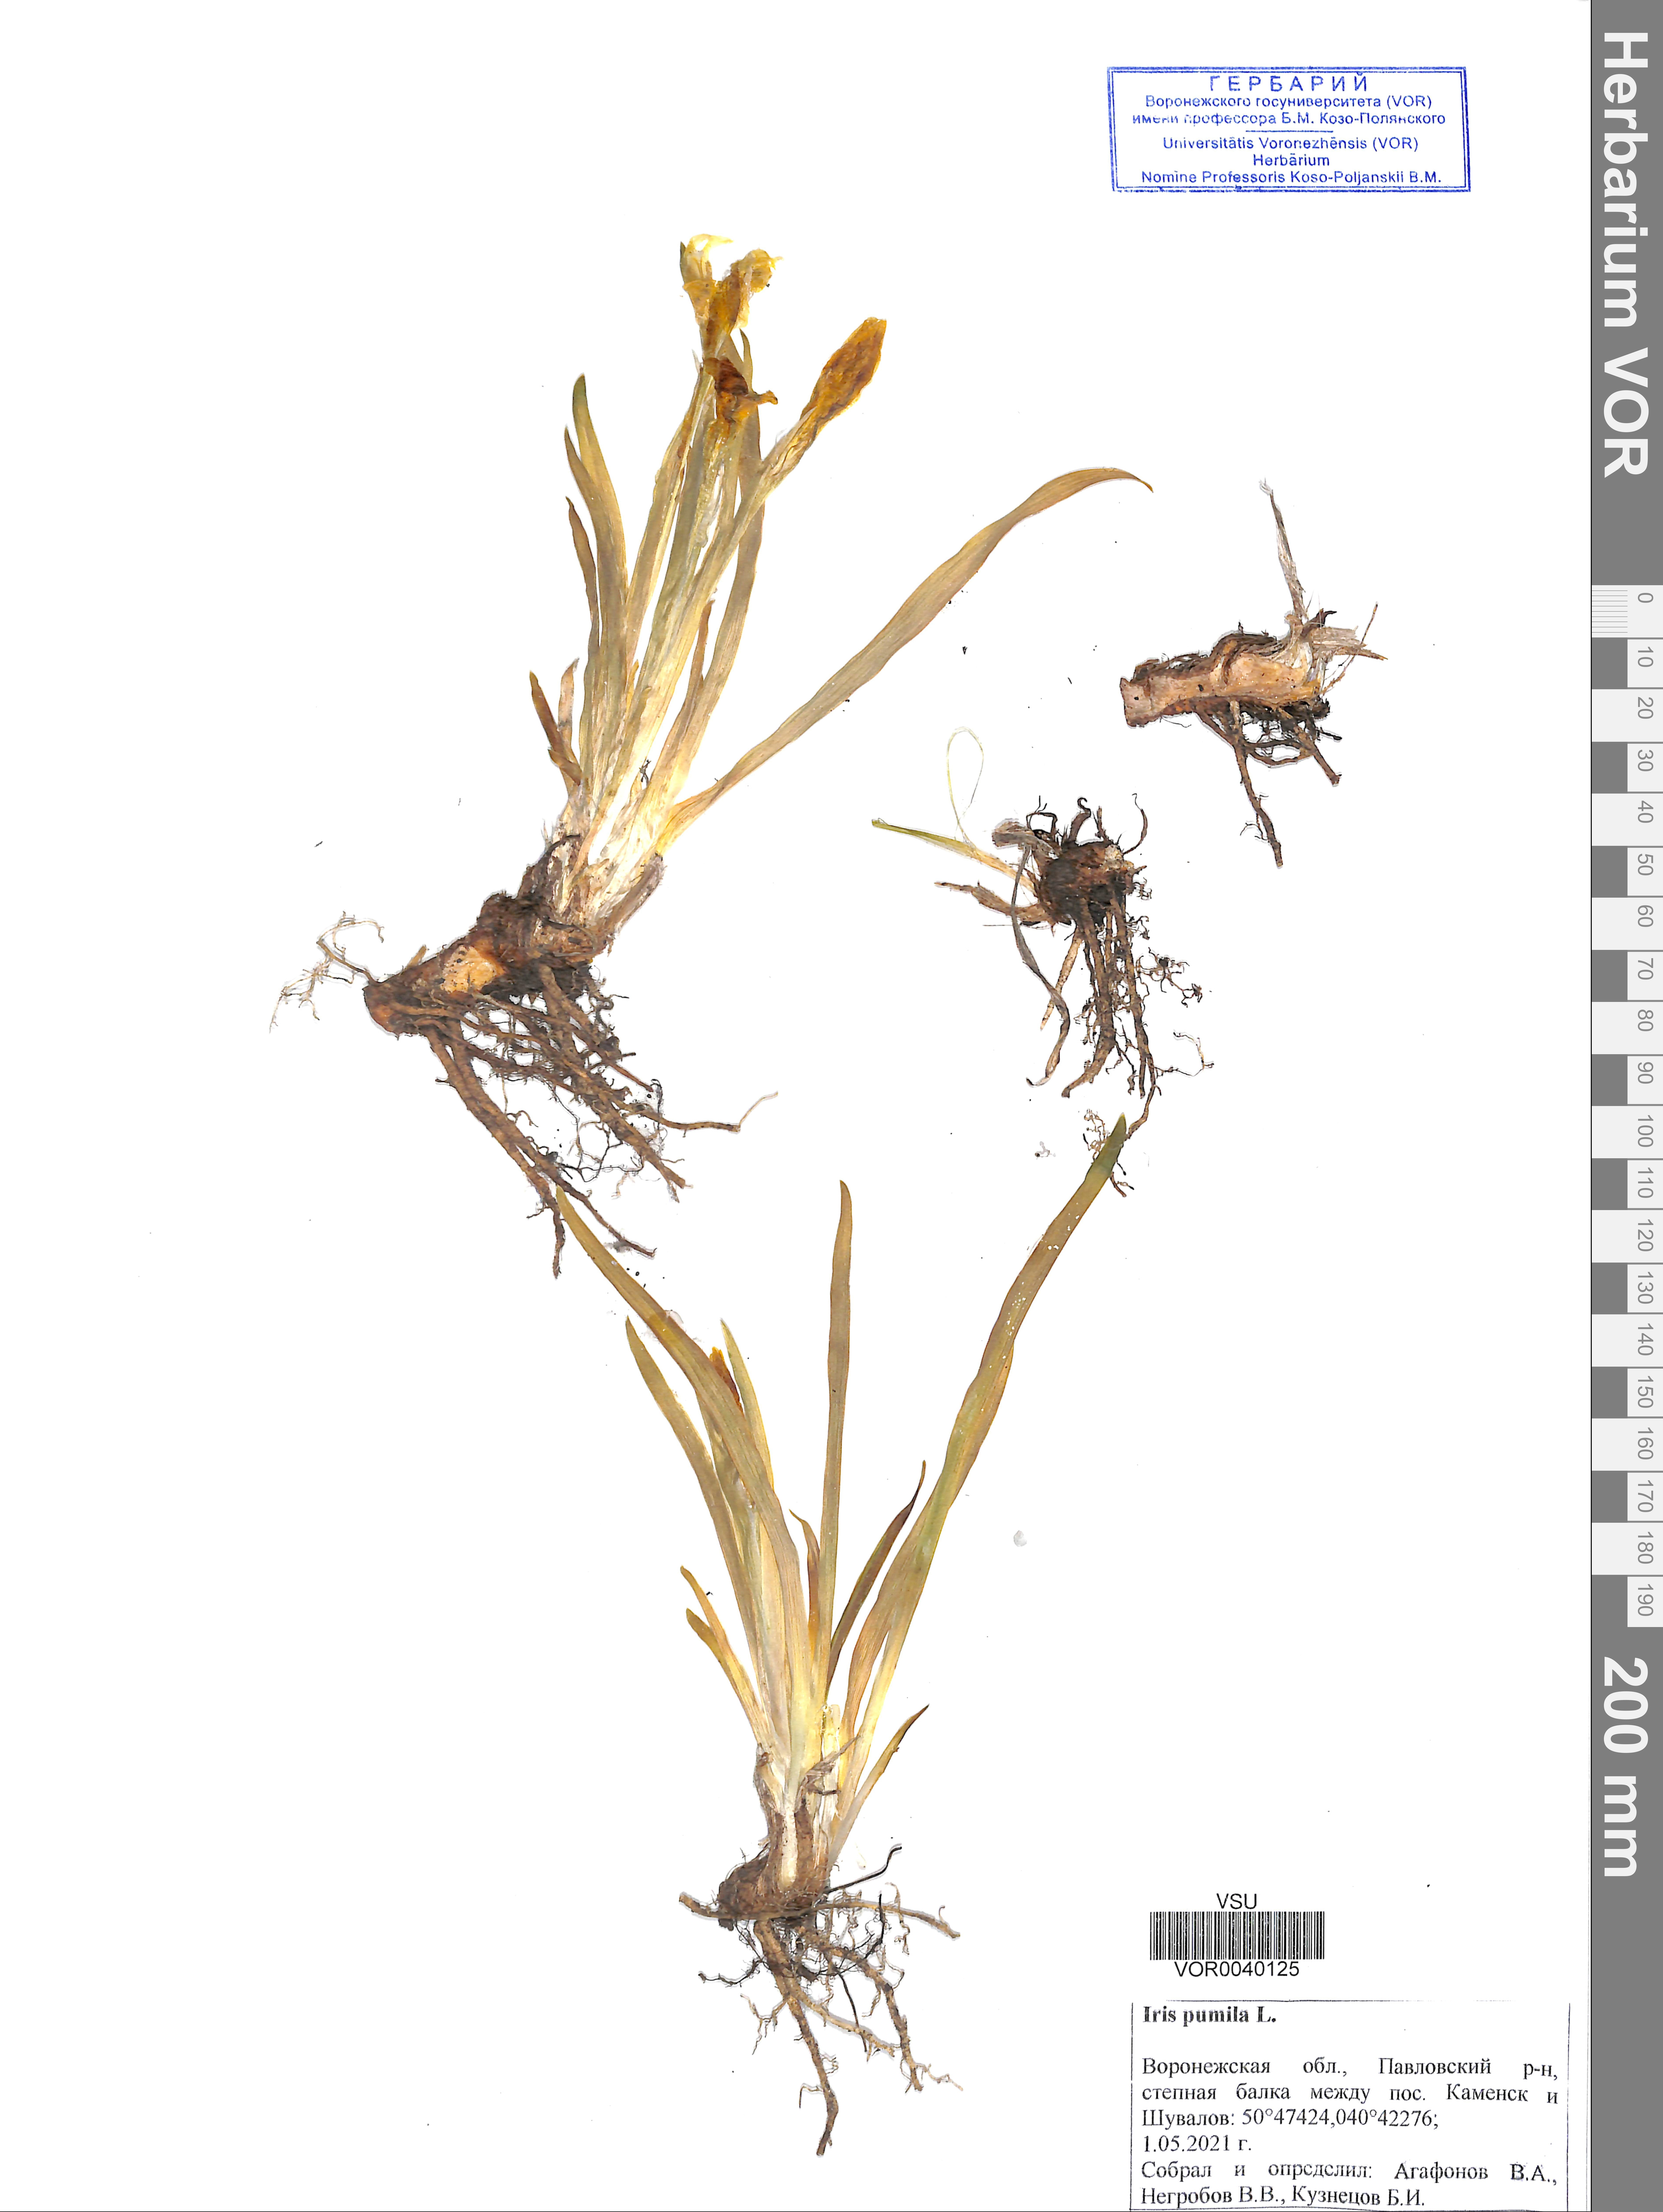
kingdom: Plantae
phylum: Tracheophyta
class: Liliopsida
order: Asparagales
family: Iridaceae
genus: Iris
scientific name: Iris pumila
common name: Dwarf iris
